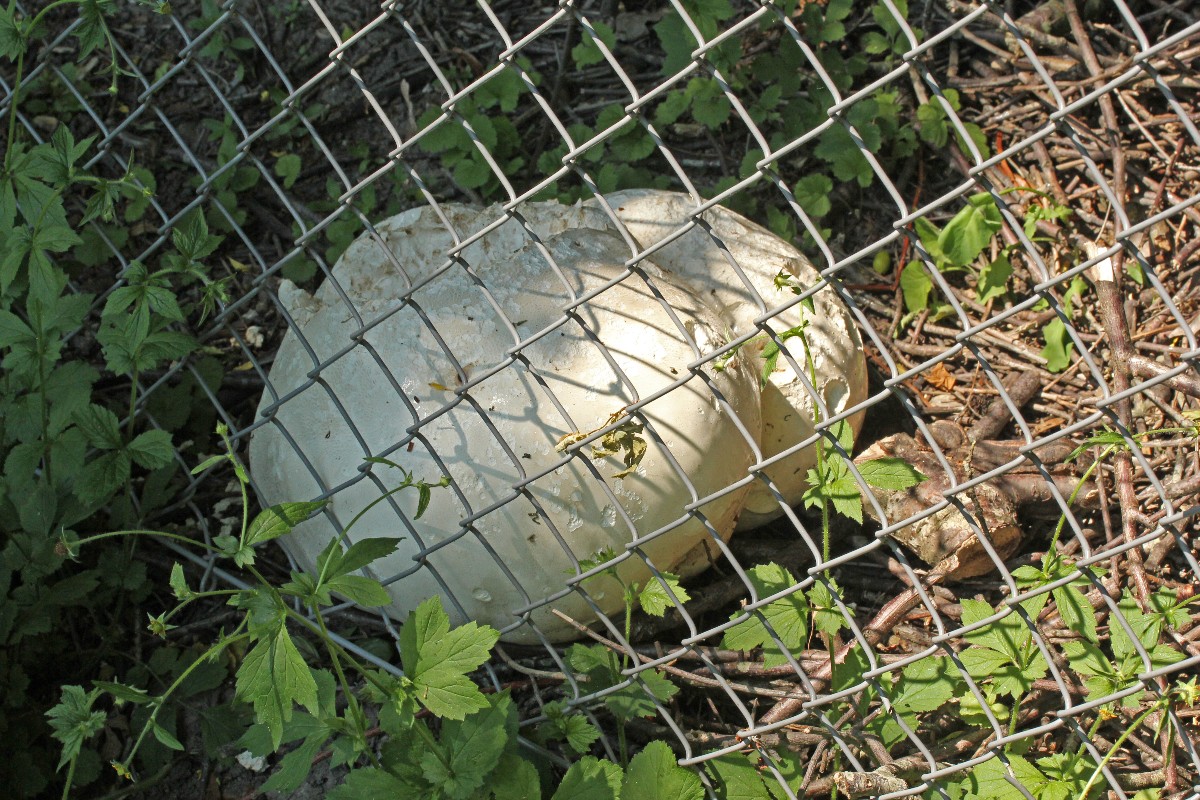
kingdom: Fungi
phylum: Basidiomycota
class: Agaricomycetes
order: Agaricales
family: Lycoperdaceae
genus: Calvatia
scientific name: Calvatia gigantea
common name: kæmpestøvbold
